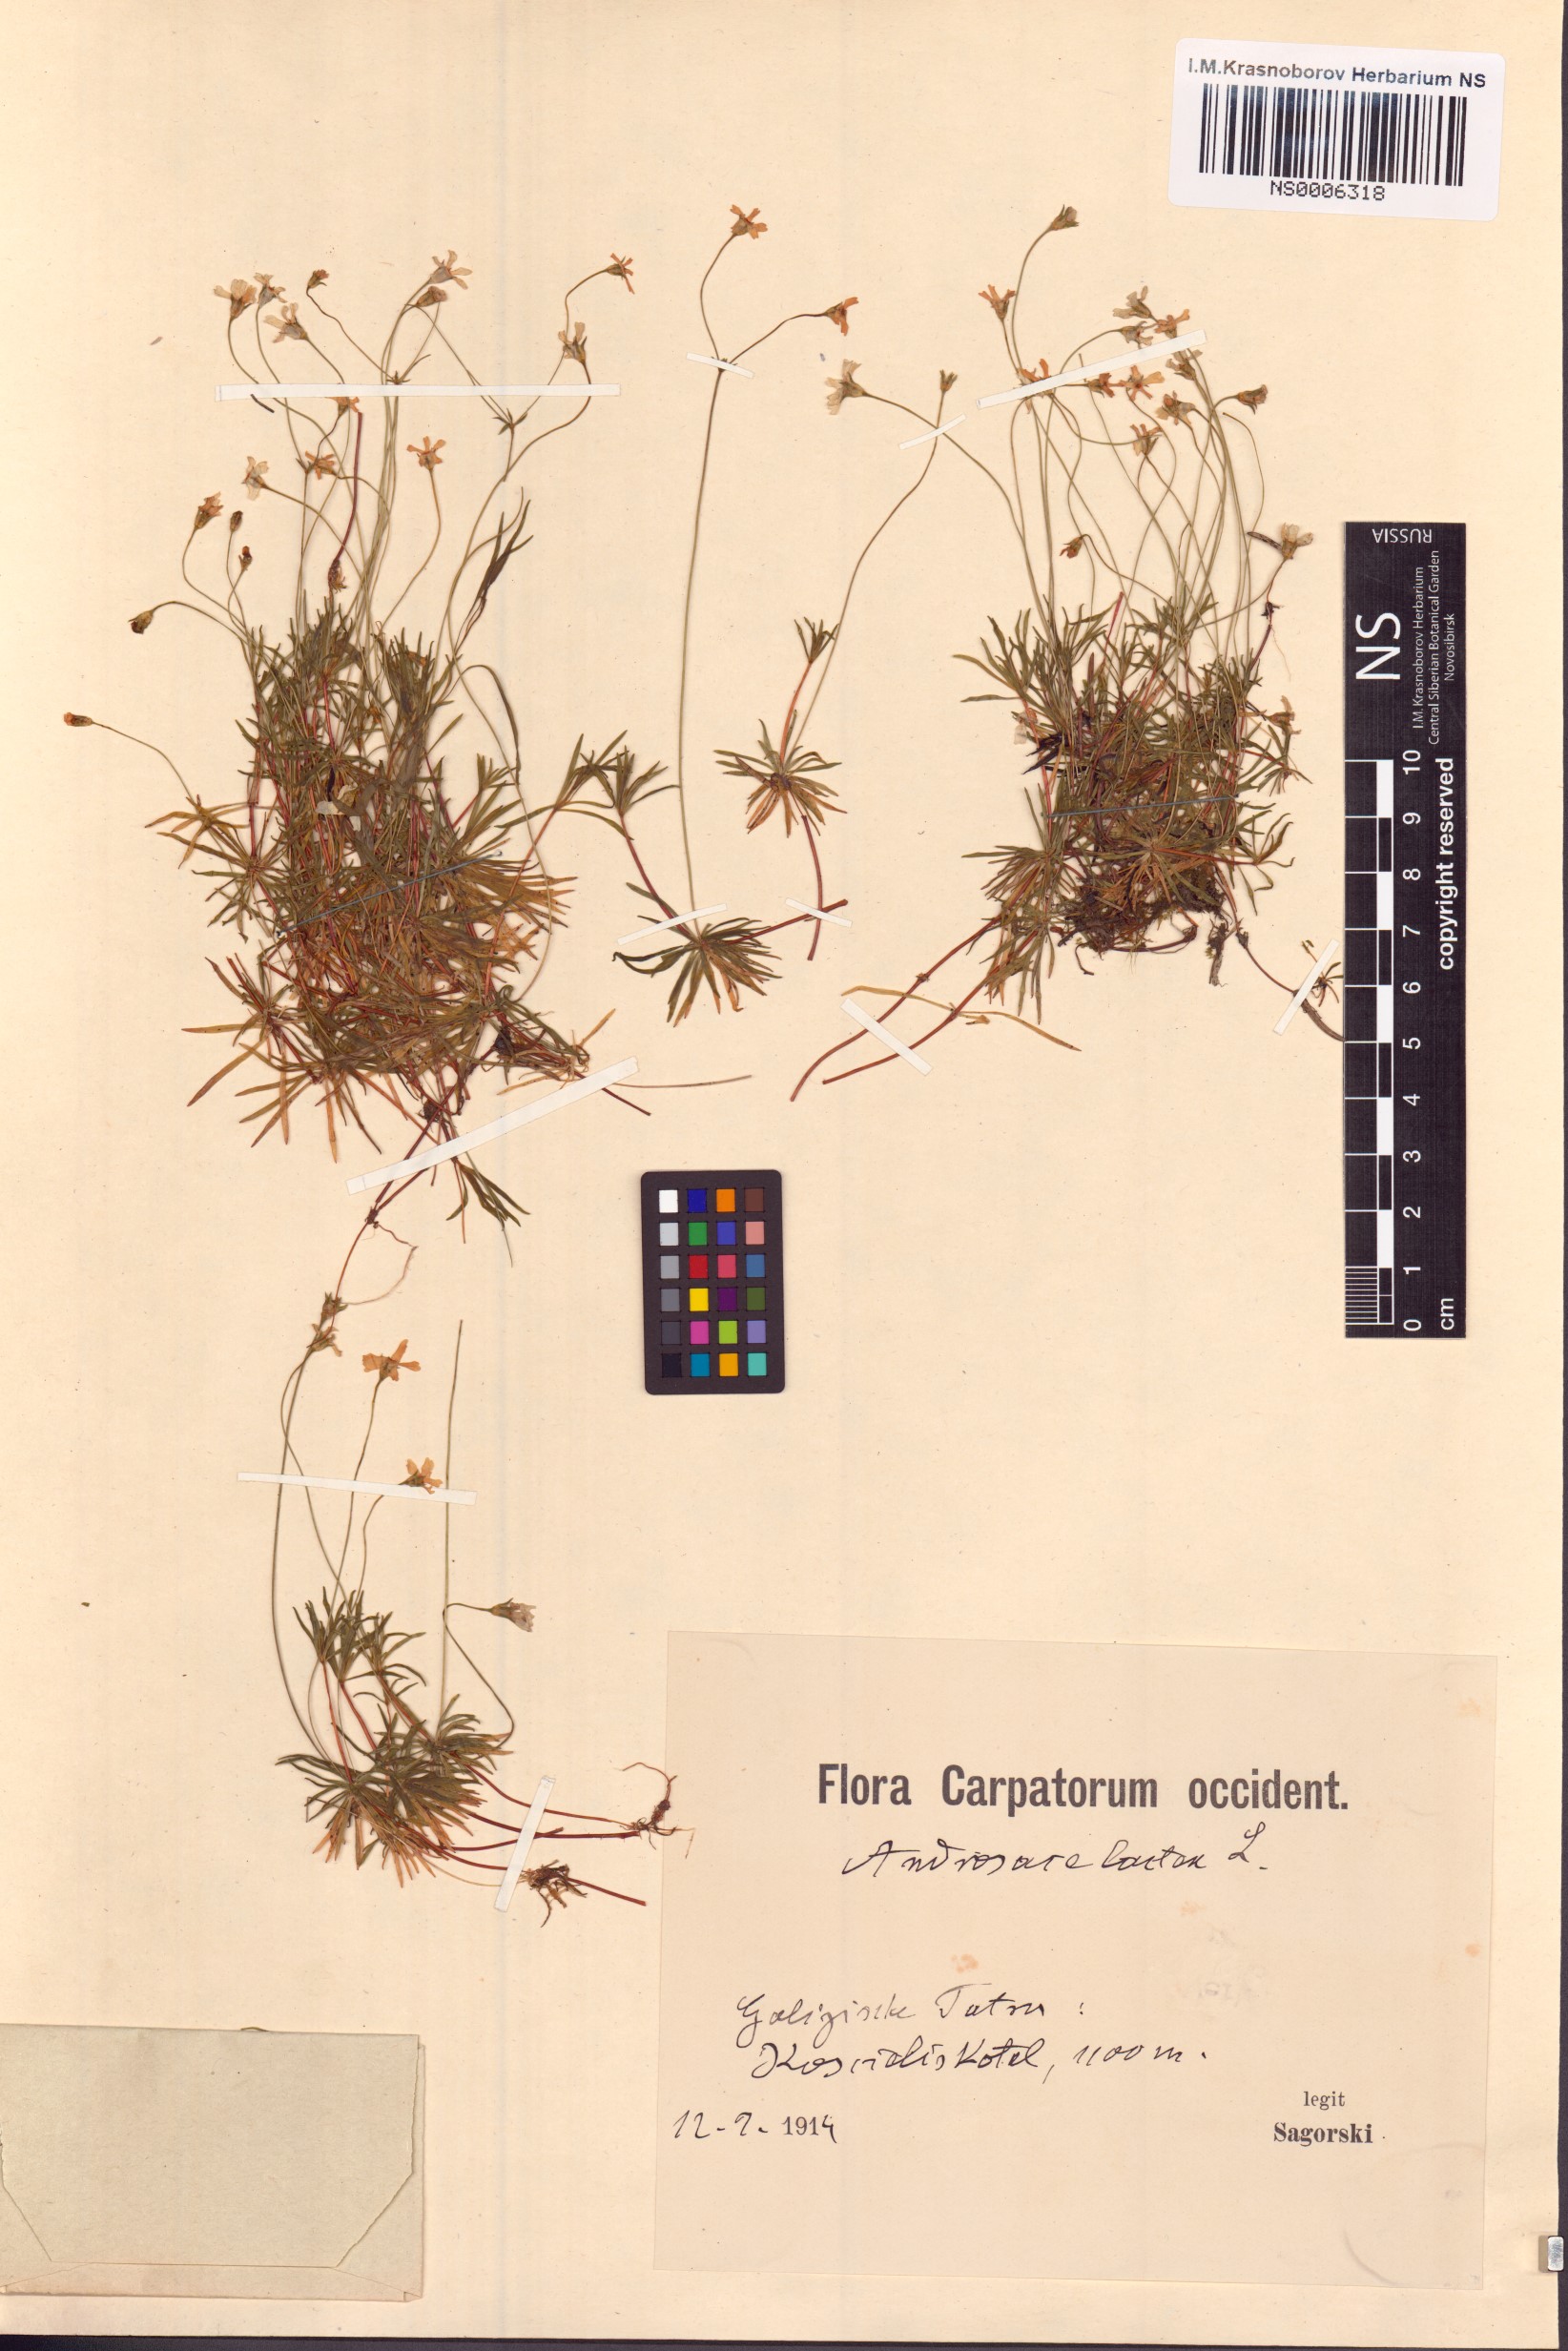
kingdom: Plantae
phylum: Tracheophyta
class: Magnoliopsida
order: Ericales
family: Primulaceae
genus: Androsace
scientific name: Androsace lactea
